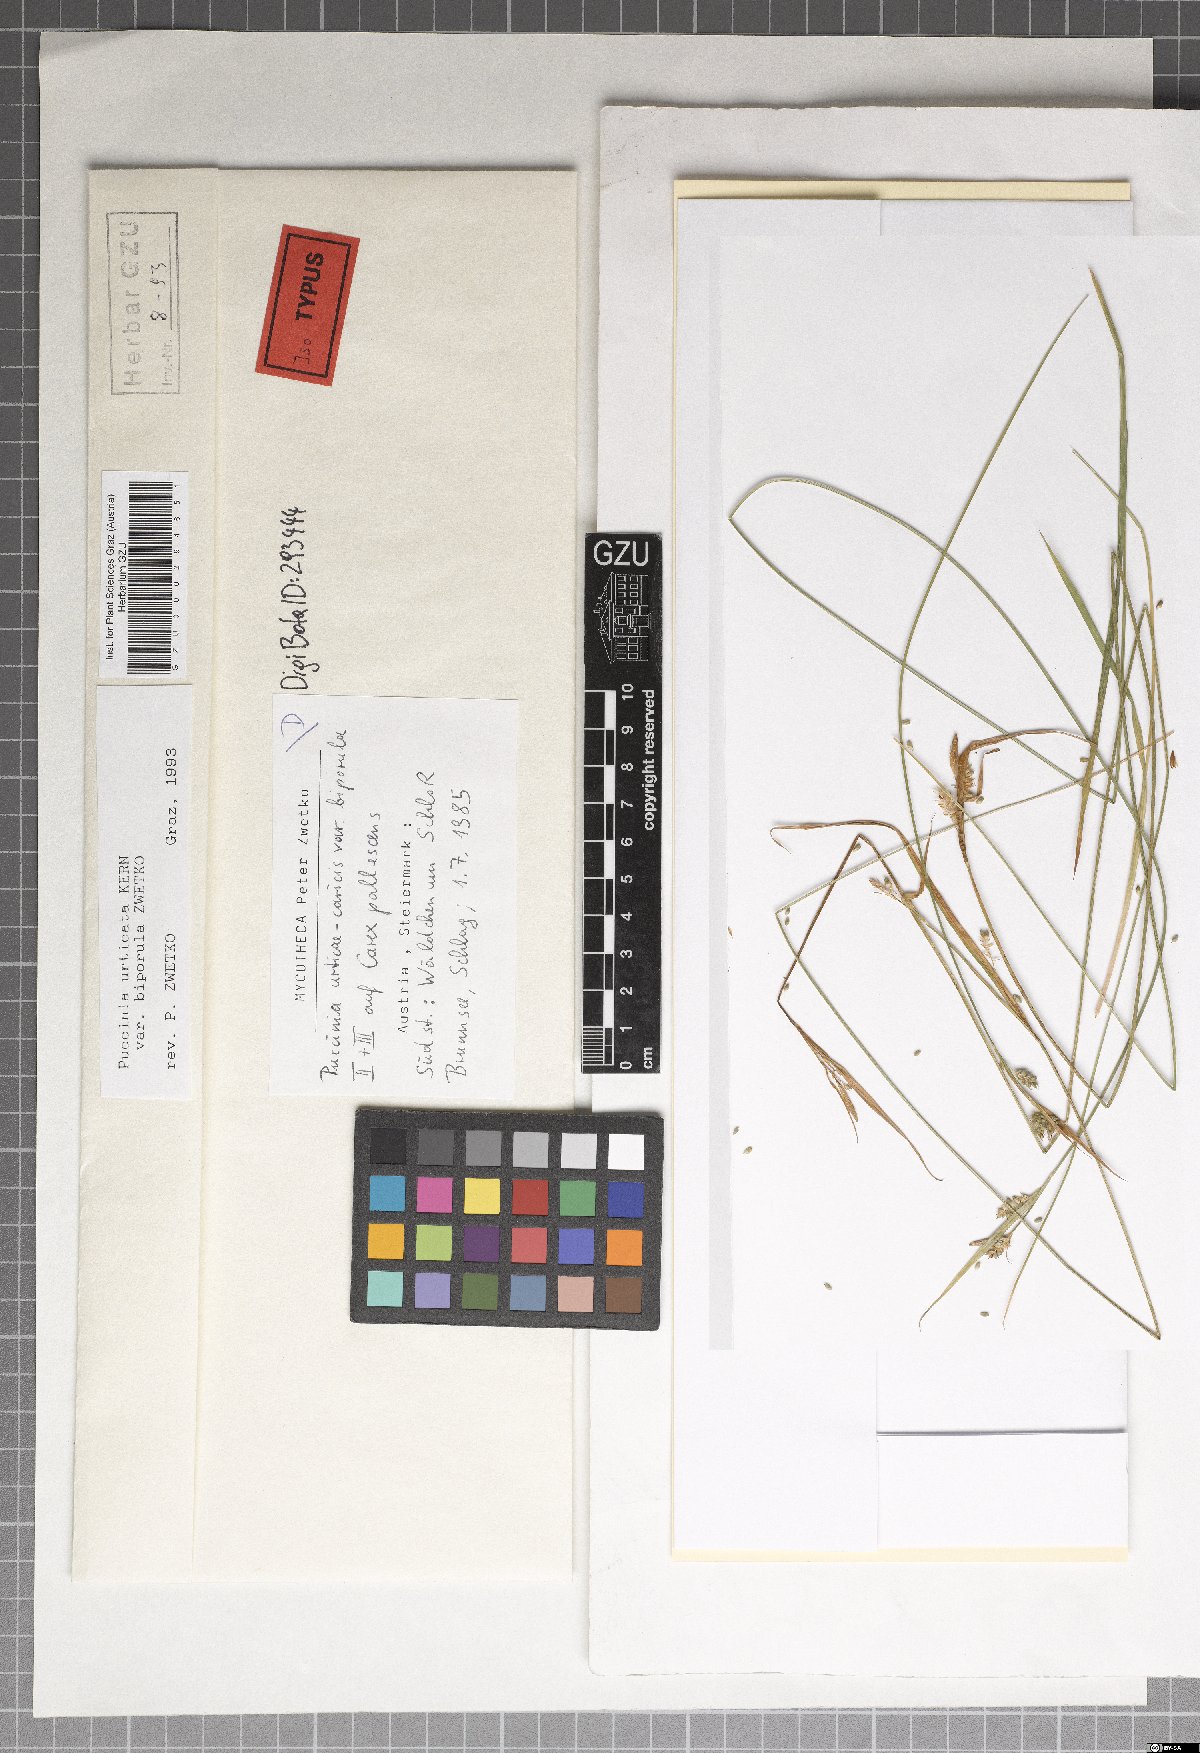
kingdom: Fungi
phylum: Basidiomycota
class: Pucciniomycetes
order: Pucciniales
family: Pucciniaceae
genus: Puccinia
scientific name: Puccinia biporospora
